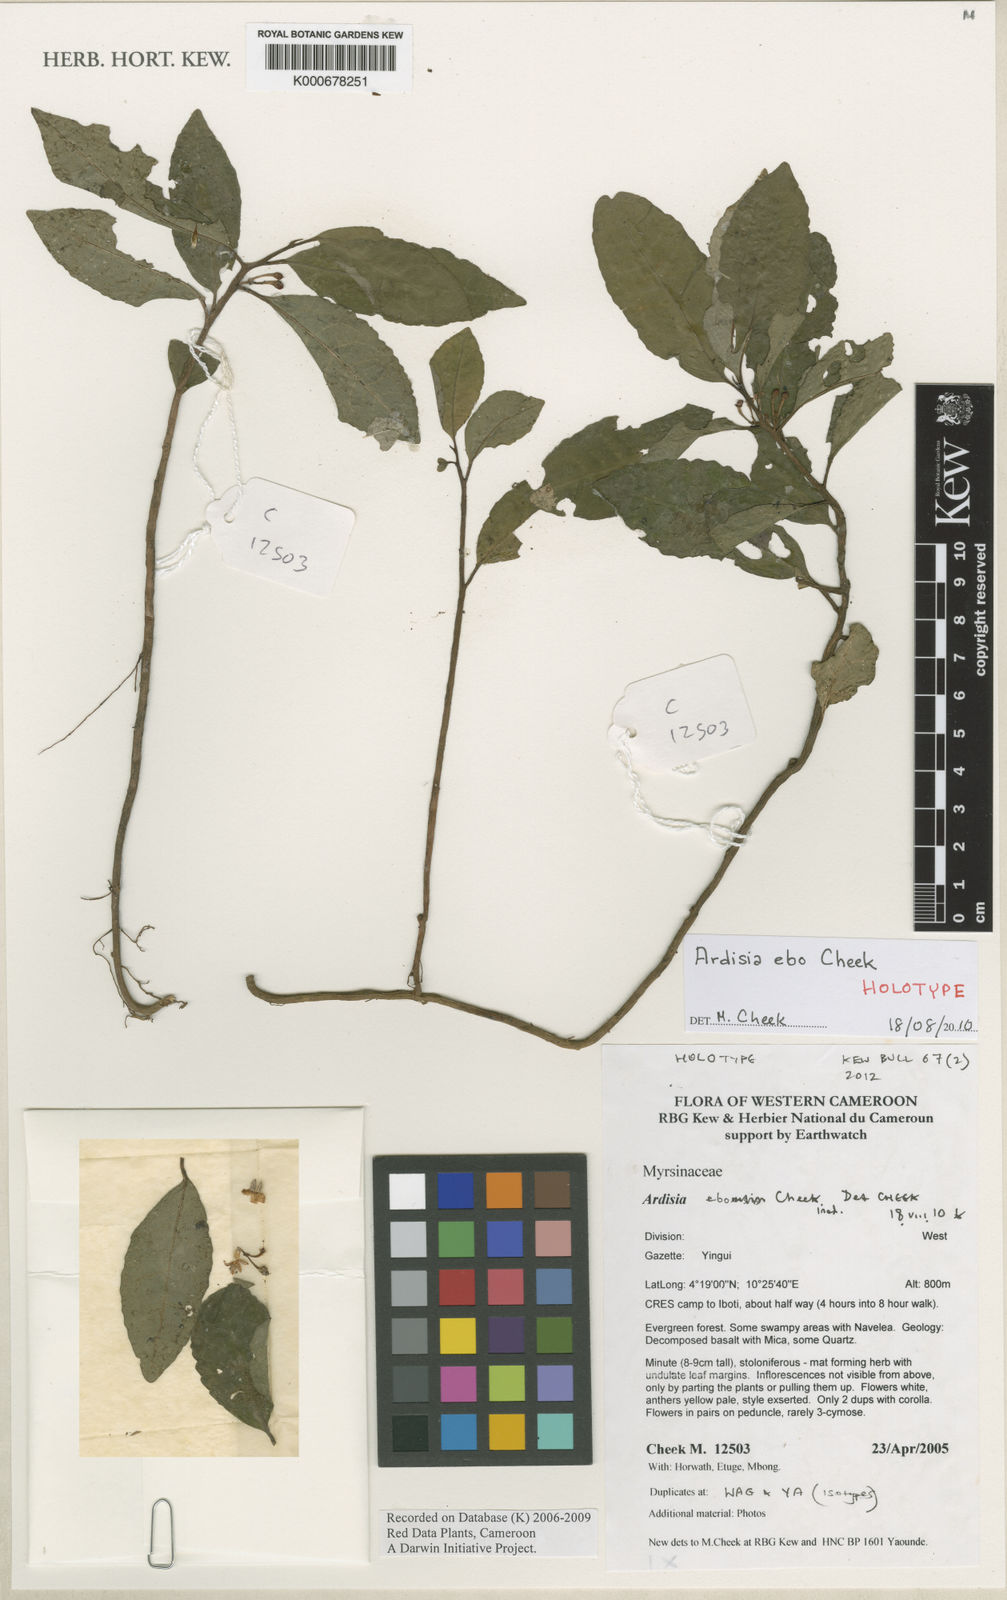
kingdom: Plantae
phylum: Tracheophyta
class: Magnoliopsida
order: Ericales
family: Primulaceae
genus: Ardisia
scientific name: Ardisia ebo
